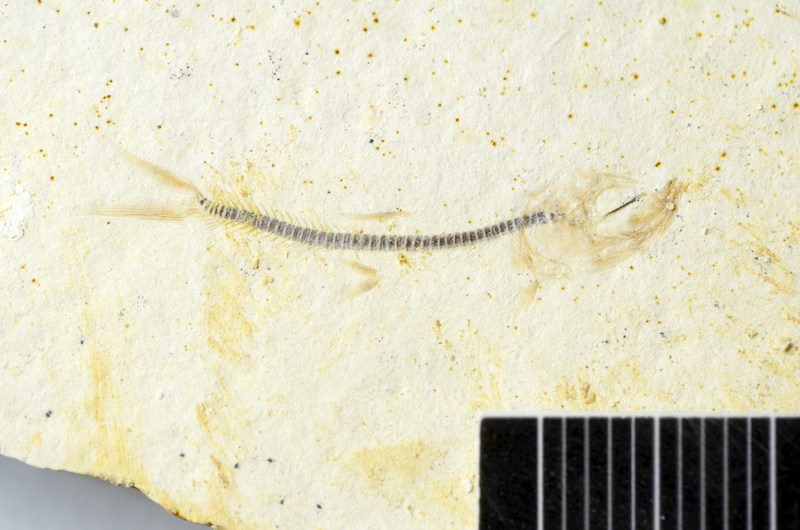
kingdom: Animalia
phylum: Chordata
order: Salmoniformes
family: Orthogonikleithridae
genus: Orthogonikleithrus
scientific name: Orthogonikleithrus hoelli
